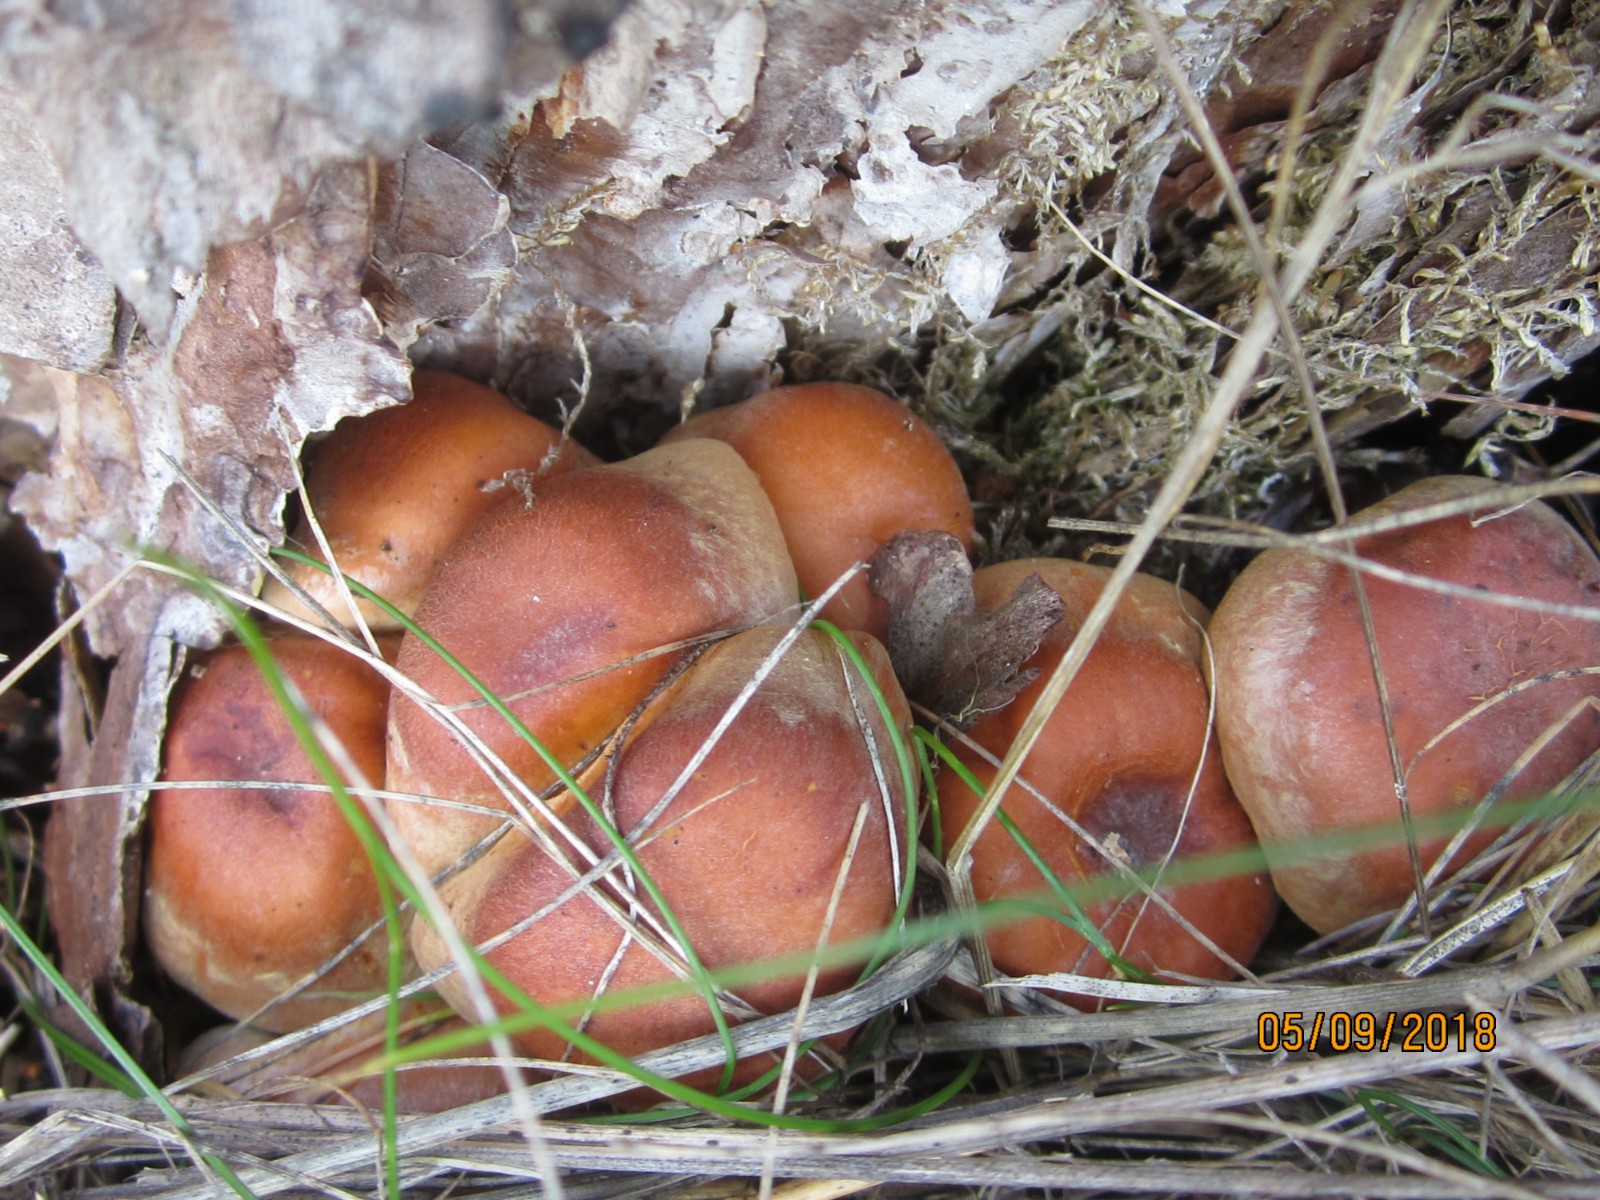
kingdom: Fungi
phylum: Basidiomycota
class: Agaricomycetes
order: Agaricales
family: Strophariaceae
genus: Hypholoma
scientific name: Hypholoma fasciculare
